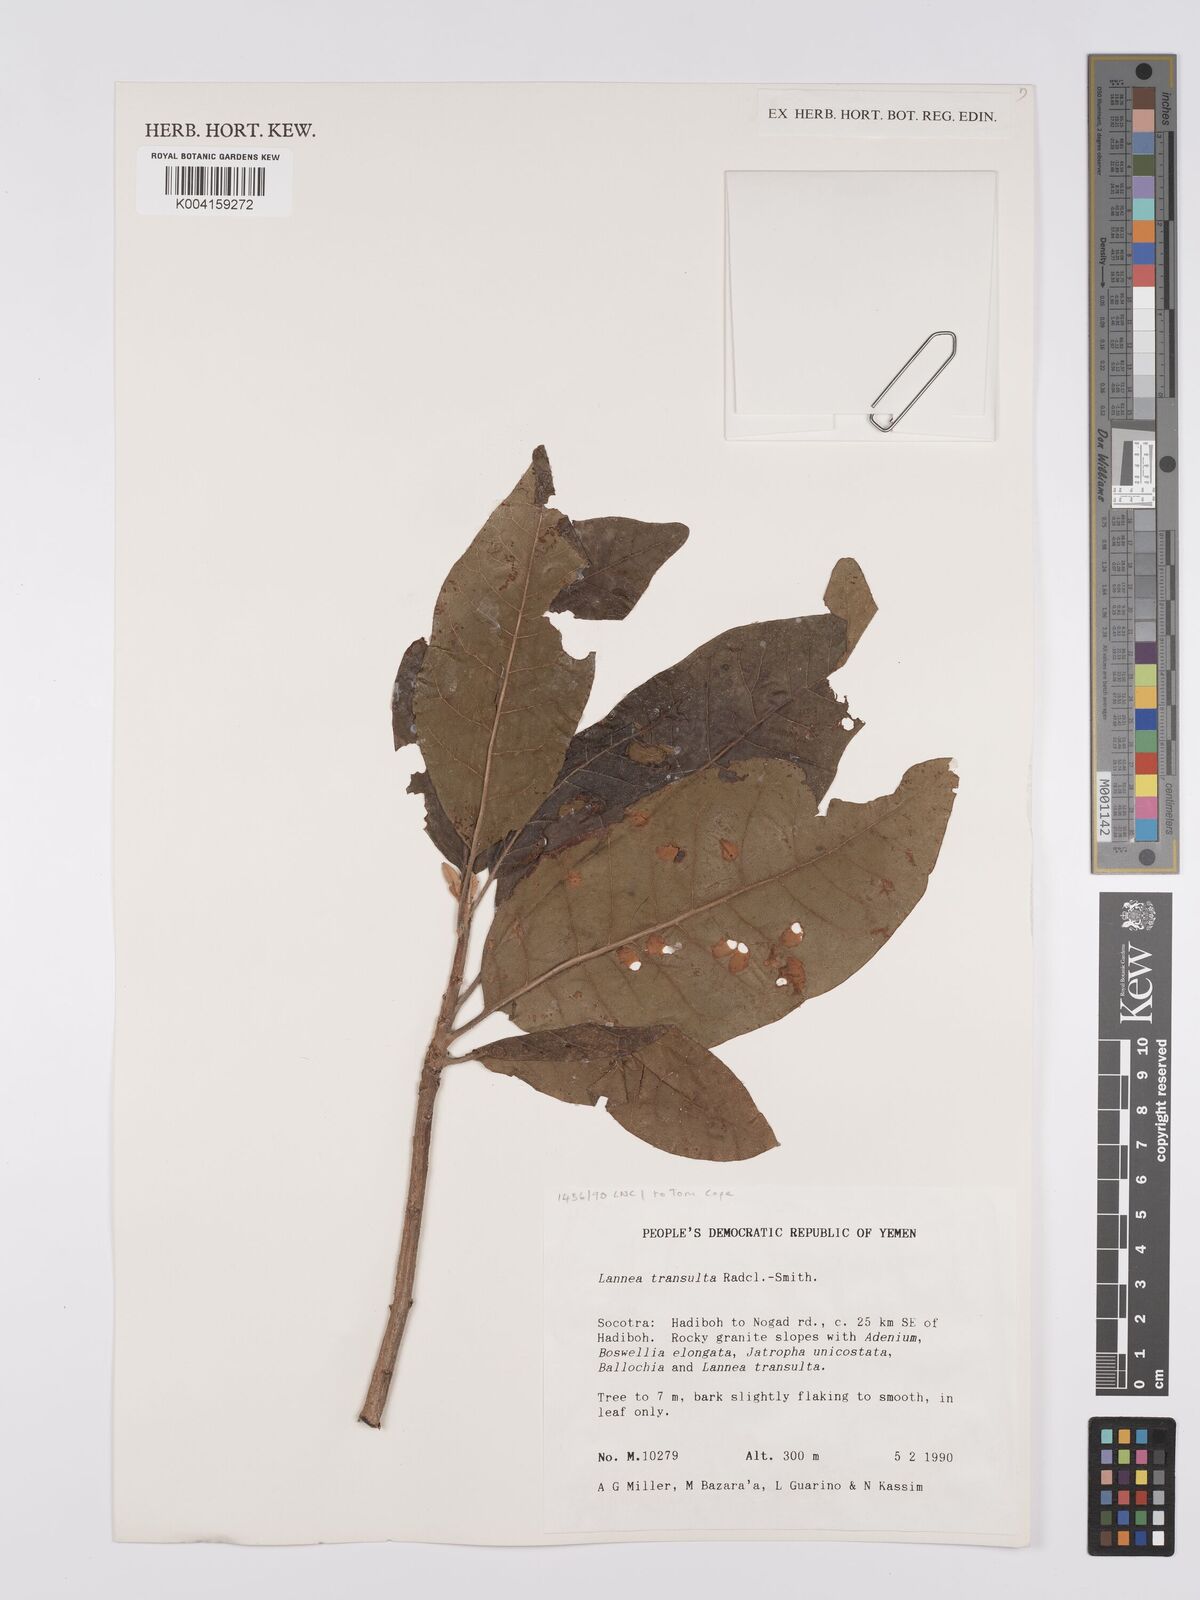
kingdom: Plantae
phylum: Tracheophyta
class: Magnoliopsida
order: Sapindales
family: Anacardiaceae
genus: Lannea
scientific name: Lannea transulta
